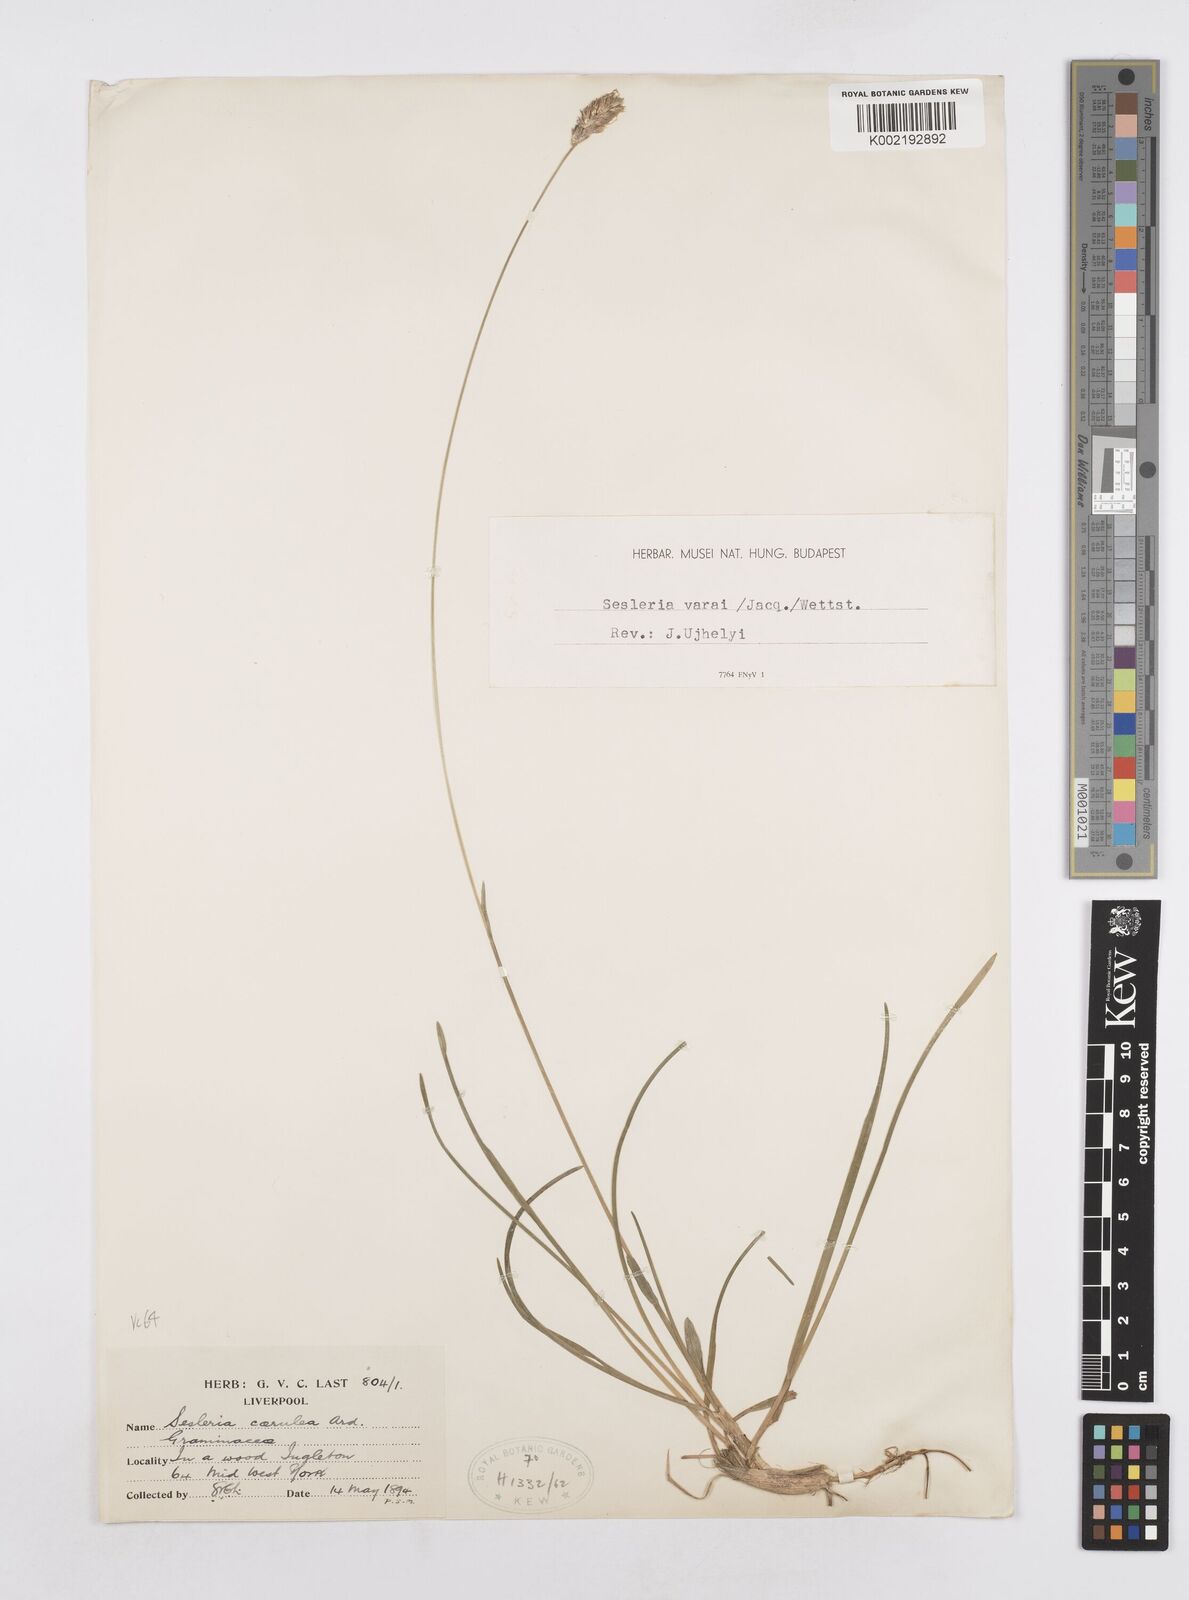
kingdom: Plantae
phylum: Tracheophyta
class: Liliopsida
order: Poales
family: Poaceae
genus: Sesleria
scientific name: Sesleria caerulea
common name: Blue moor-grass
